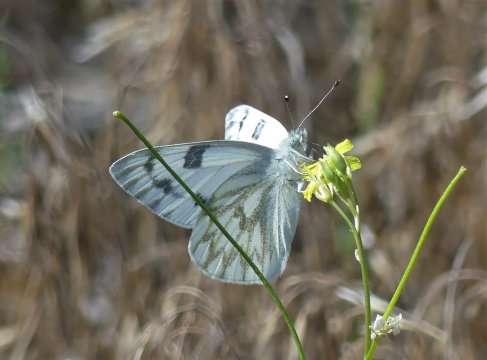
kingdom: Animalia
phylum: Arthropoda
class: Insecta
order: Lepidoptera
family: Pieridae
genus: Pontia
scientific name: Pontia occidentalis
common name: Western White
